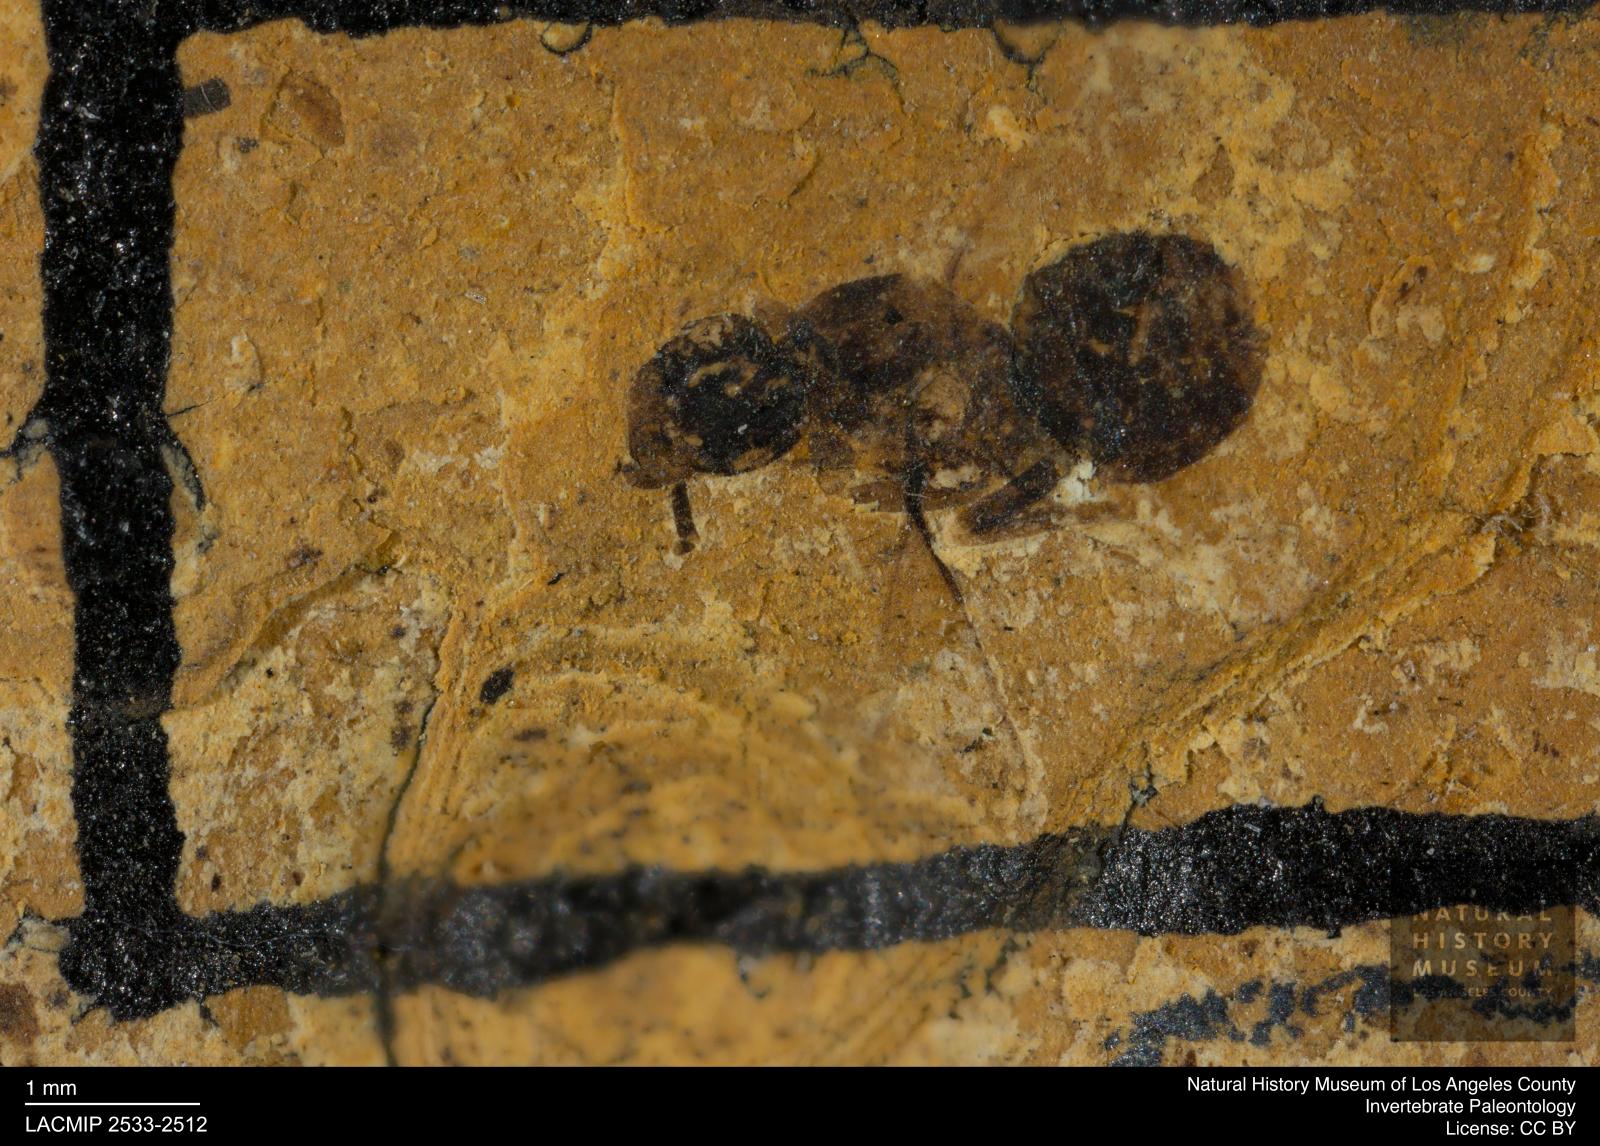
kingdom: Animalia
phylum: Arthropoda
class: Insecta
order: Hymenoptera
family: Formicidae
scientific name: Formicidae
